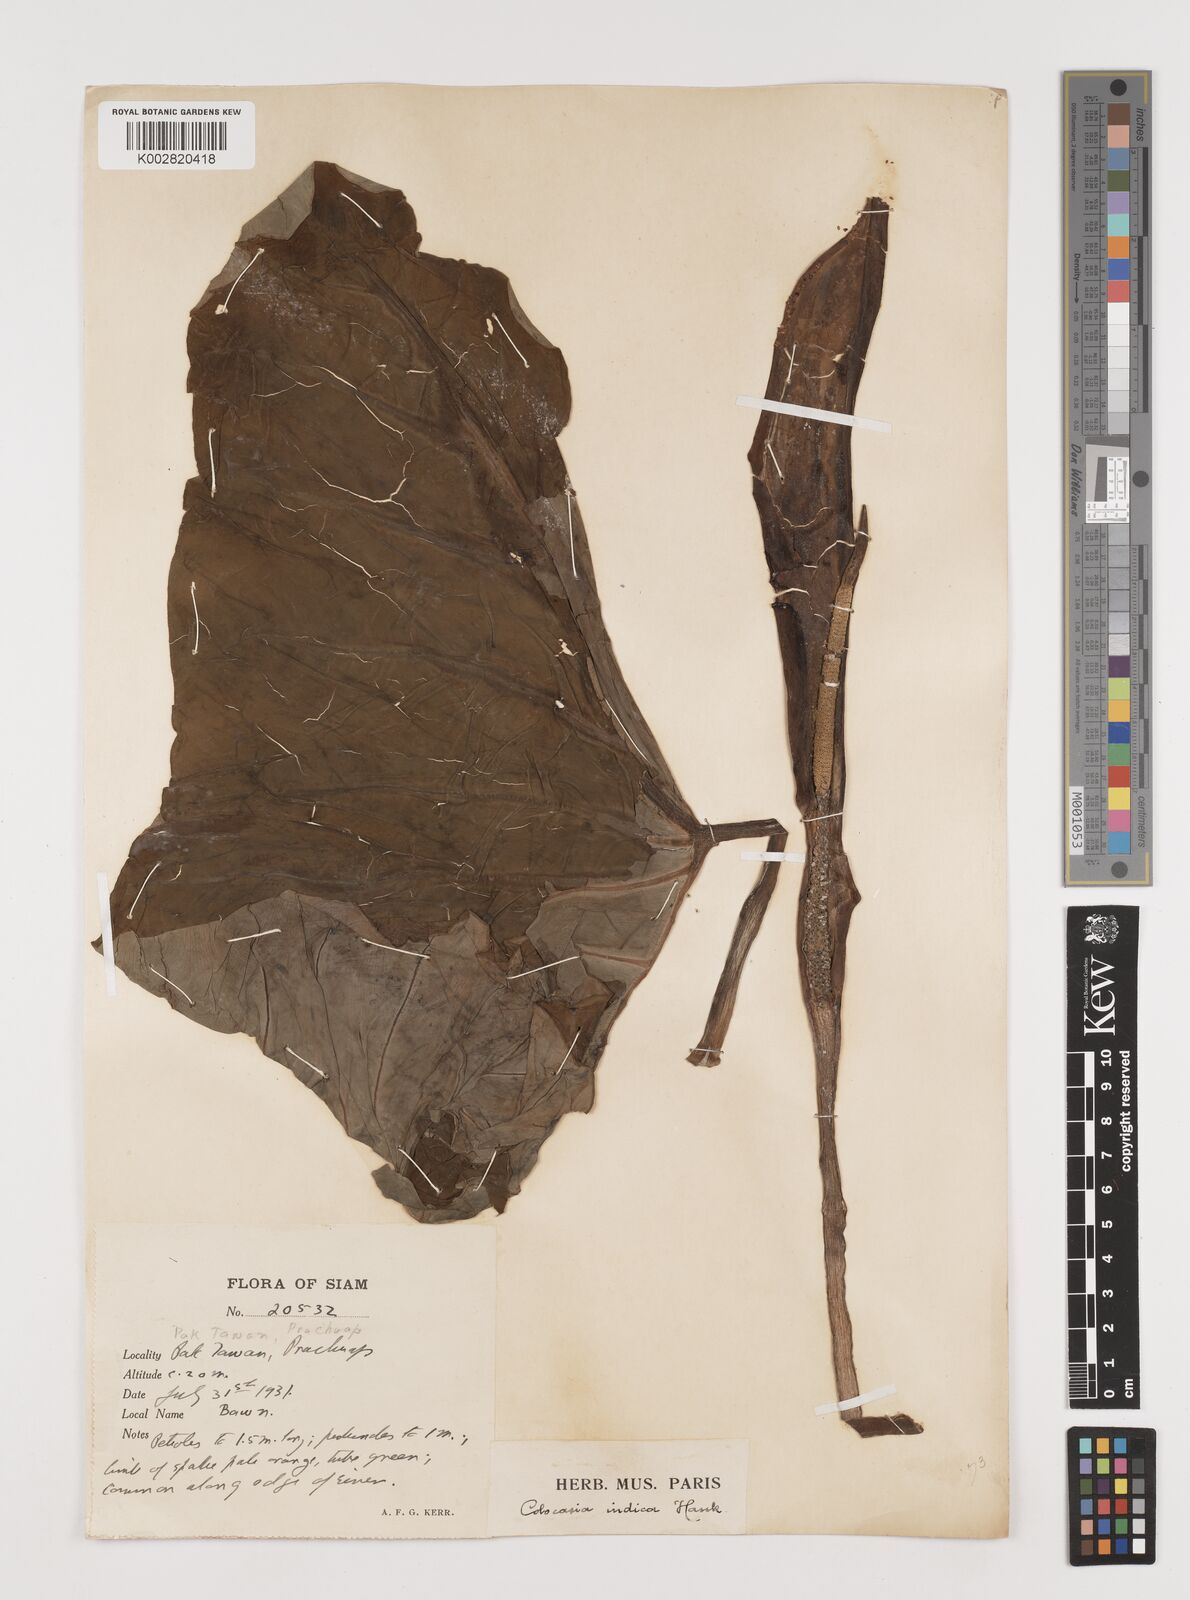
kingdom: Plantae
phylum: Tracheophyta
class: Liliopsida
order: Alismatales
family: Araceae
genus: Colocasia
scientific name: Colocasia esculenta
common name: Taro
